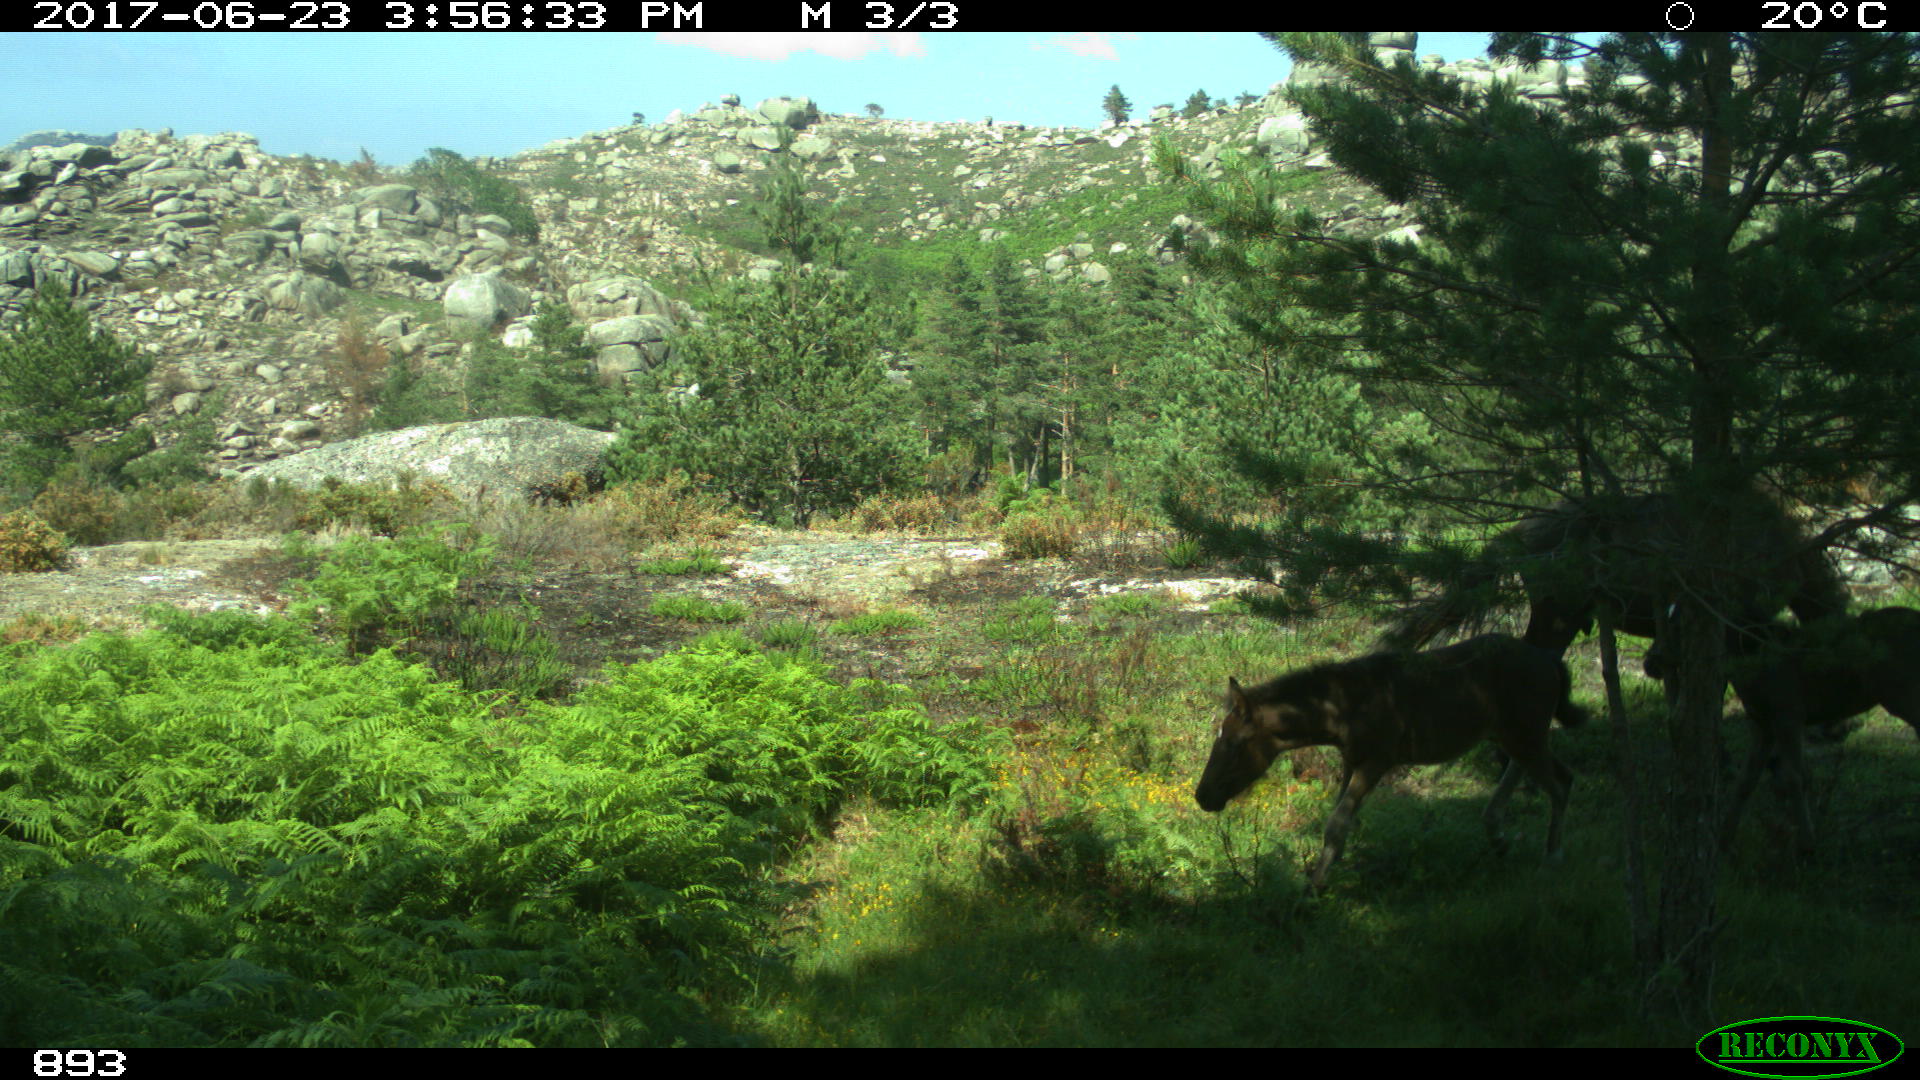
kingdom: Animalia
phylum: Chordata
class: Mammalia
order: Perissodactyla
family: Equidae
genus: Equus
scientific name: Equus caballus
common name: Horse
